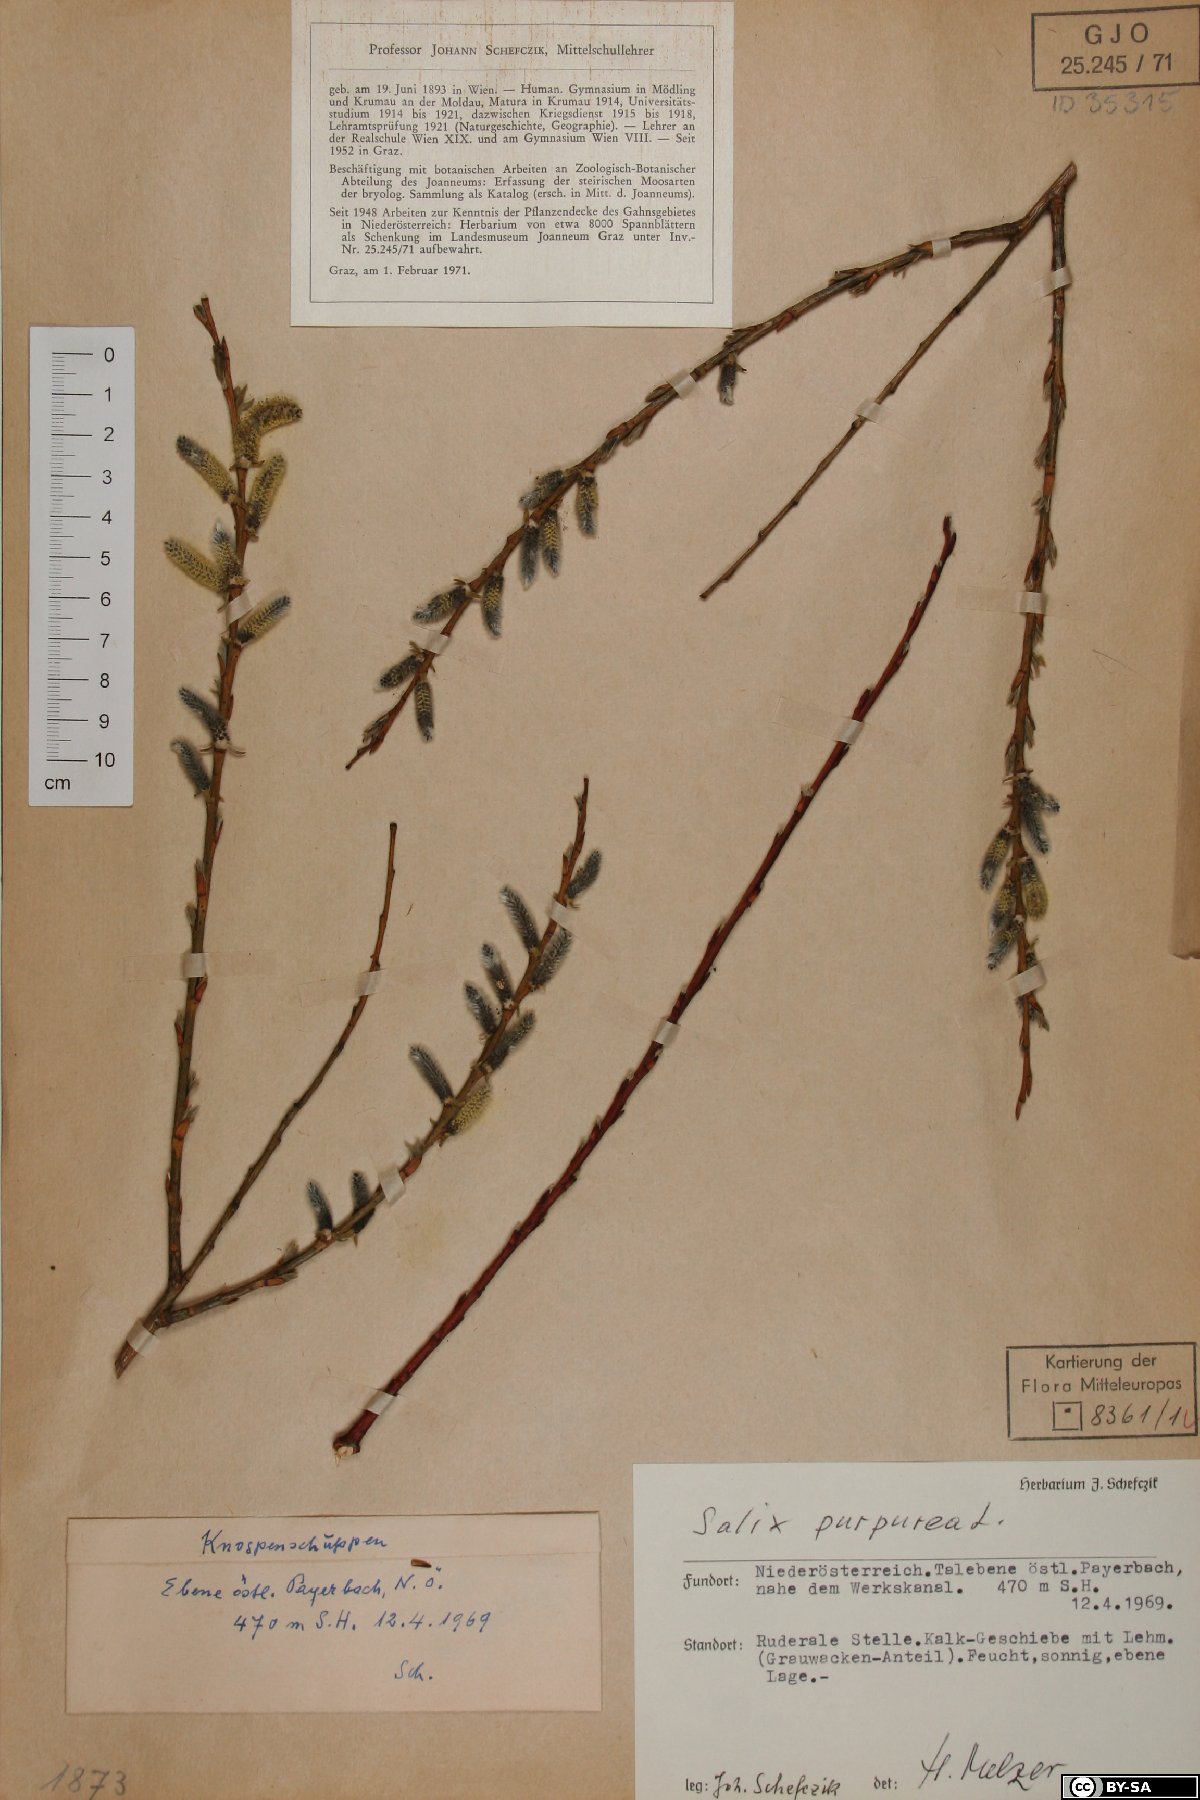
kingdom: Plantae
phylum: Tracheophyta
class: Magnoliopsida
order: Malpighiales
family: Salicaceae
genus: Salix
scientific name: Salix purpurea
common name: Purple willow
